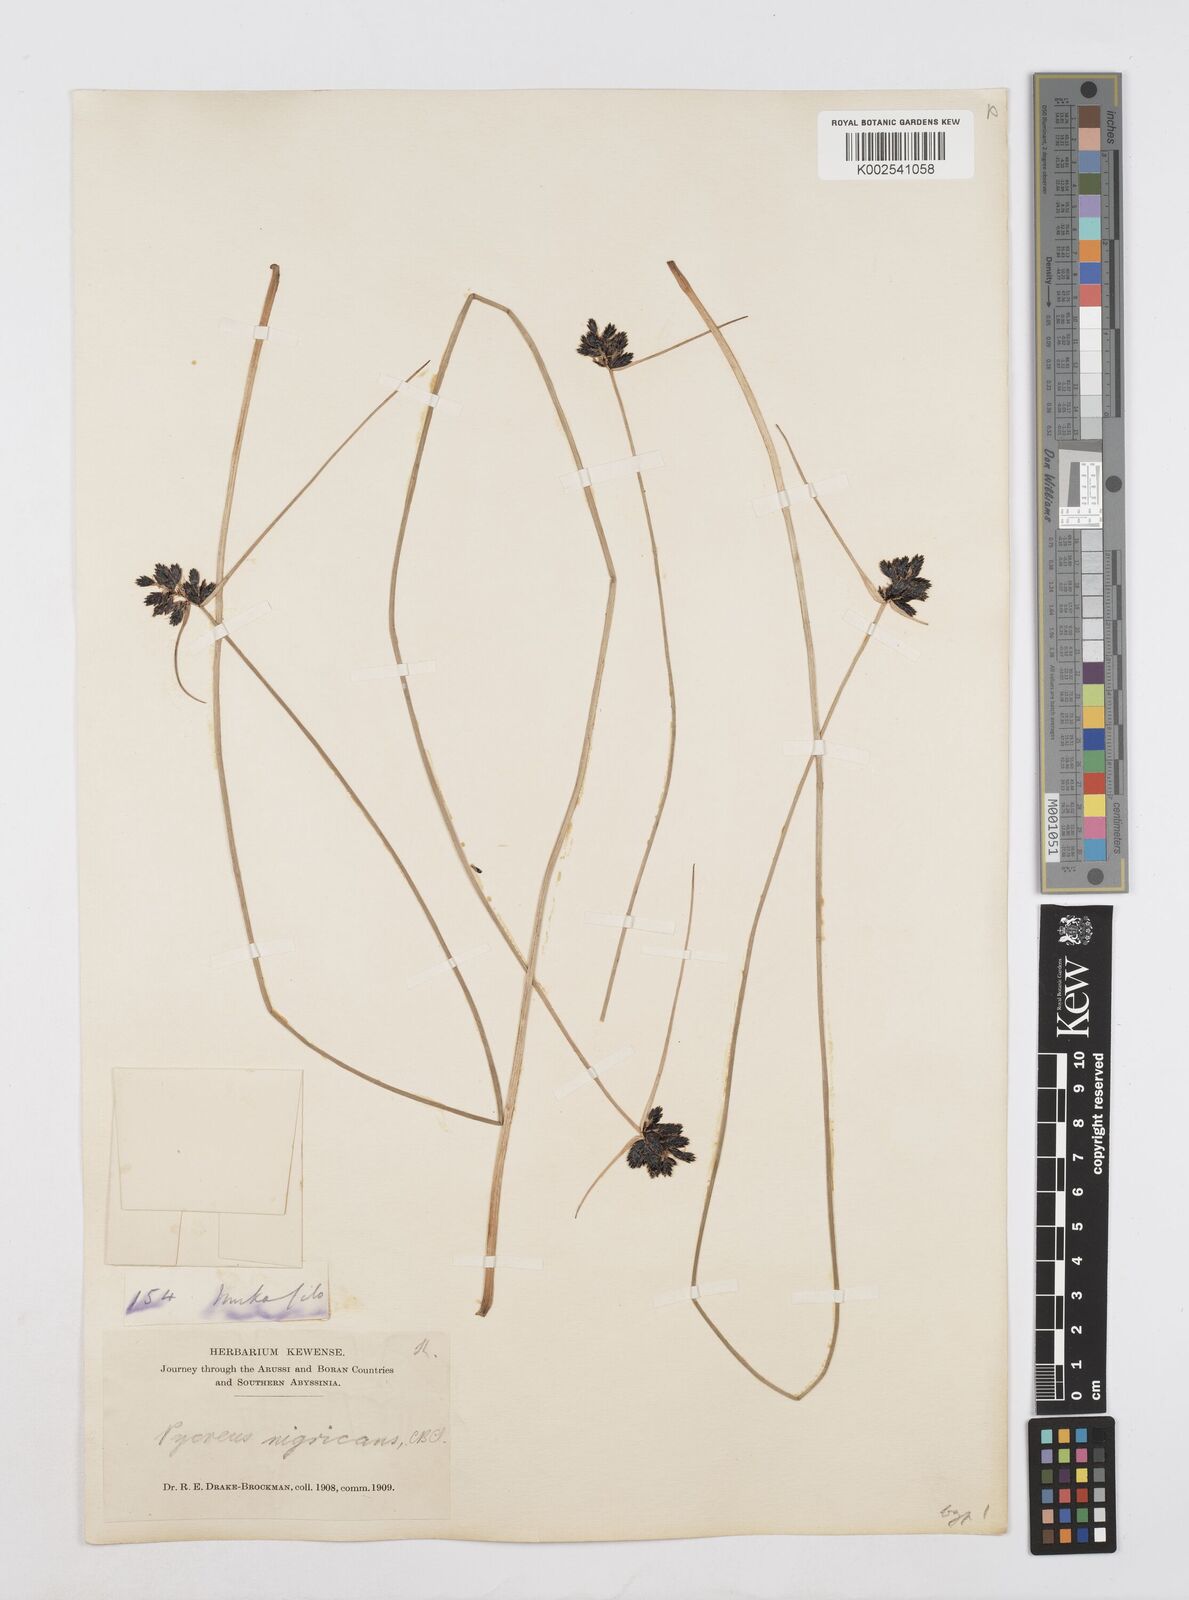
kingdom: Plantae
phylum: Tracheophyta
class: Liliopsida
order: Poales
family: Cyperaceae
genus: Cyperus
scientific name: Cyperus nigricans
